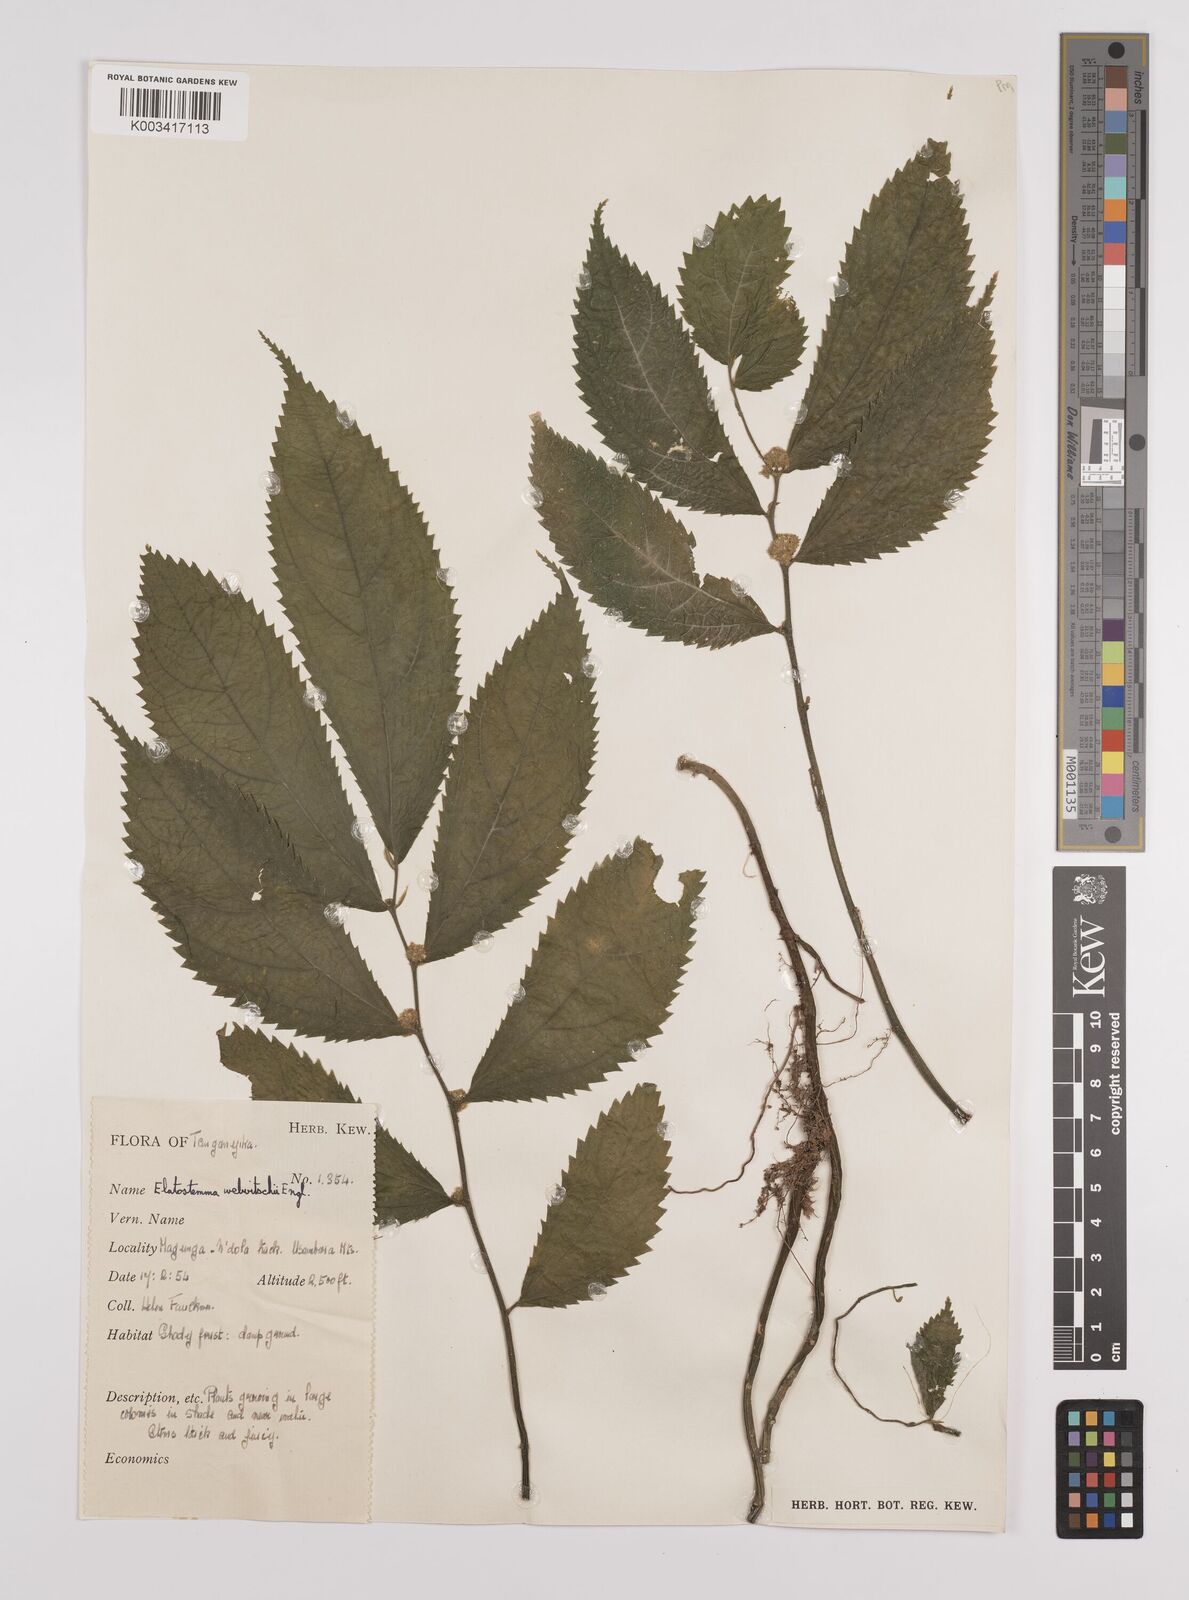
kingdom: Plantae
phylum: Tracheophyta
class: Magnoliopsida
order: Rosales
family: Urticaceae
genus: Elatostema
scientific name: Elatostema welwitschii
